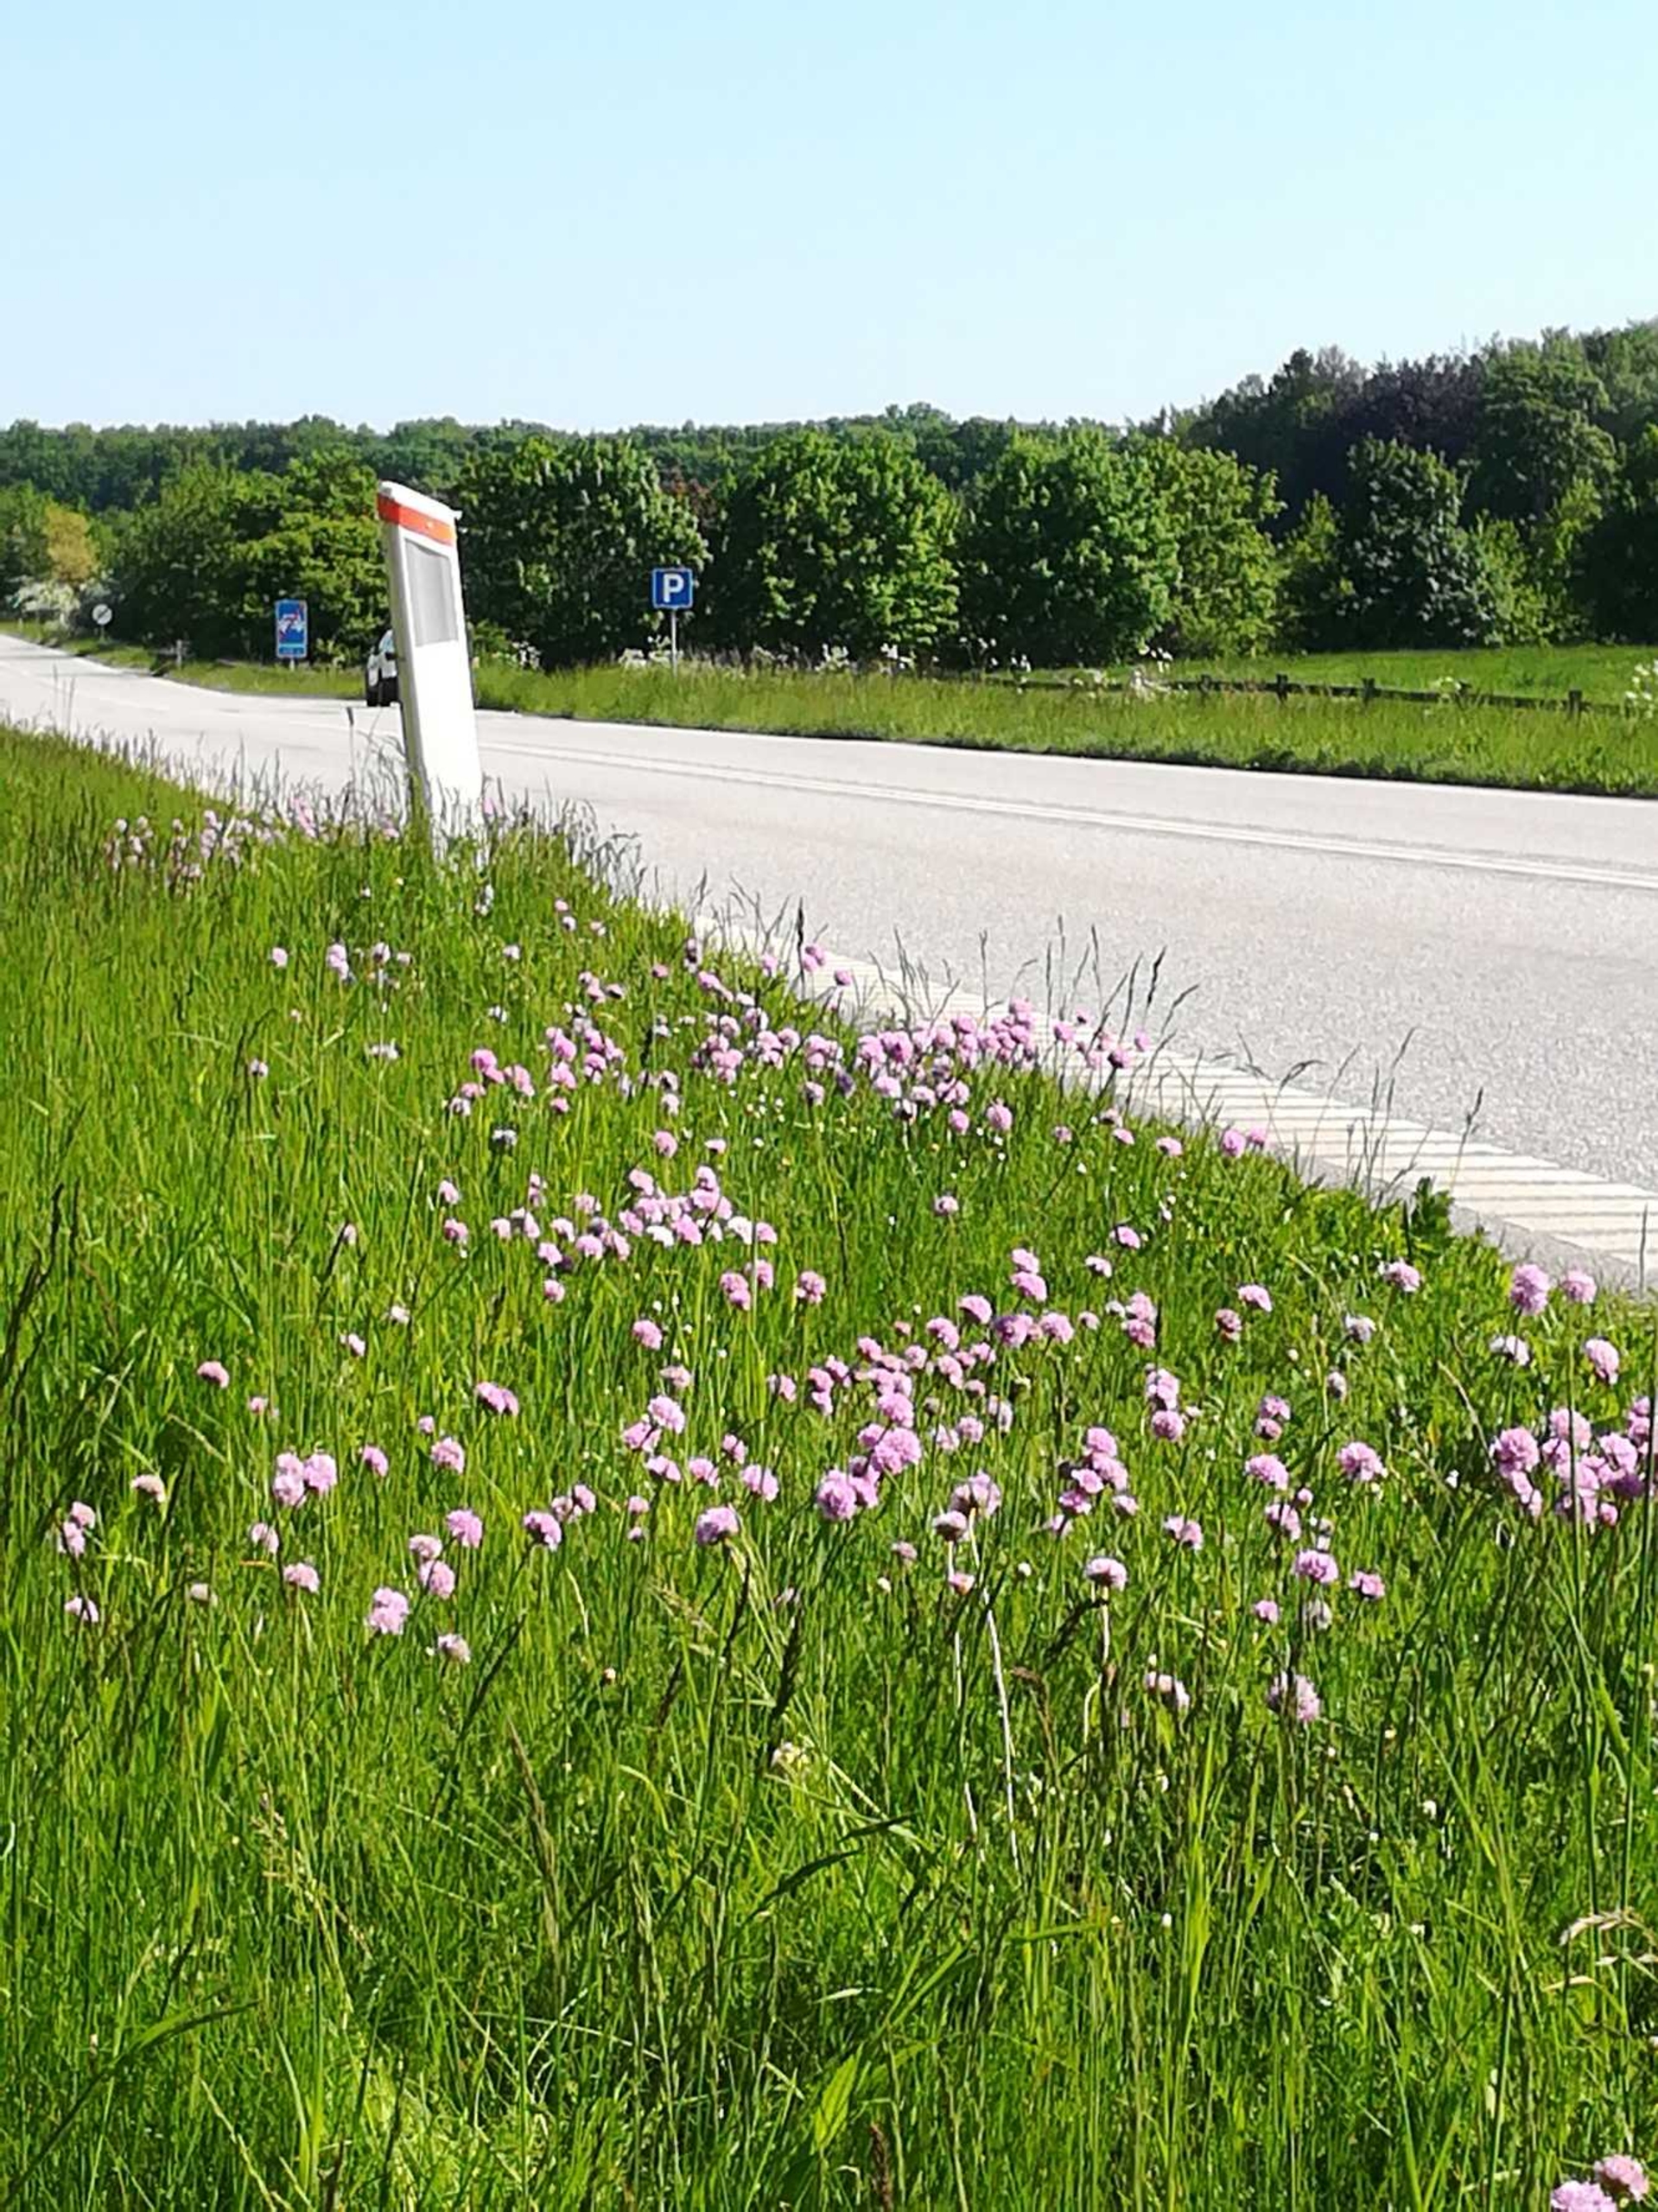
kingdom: Plantae
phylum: Tracheophyta
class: Magnoliopsida
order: Caryophyllales
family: Plumbaginaceae
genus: Armeria
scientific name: Armeria maritima
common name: Engelskgræs
